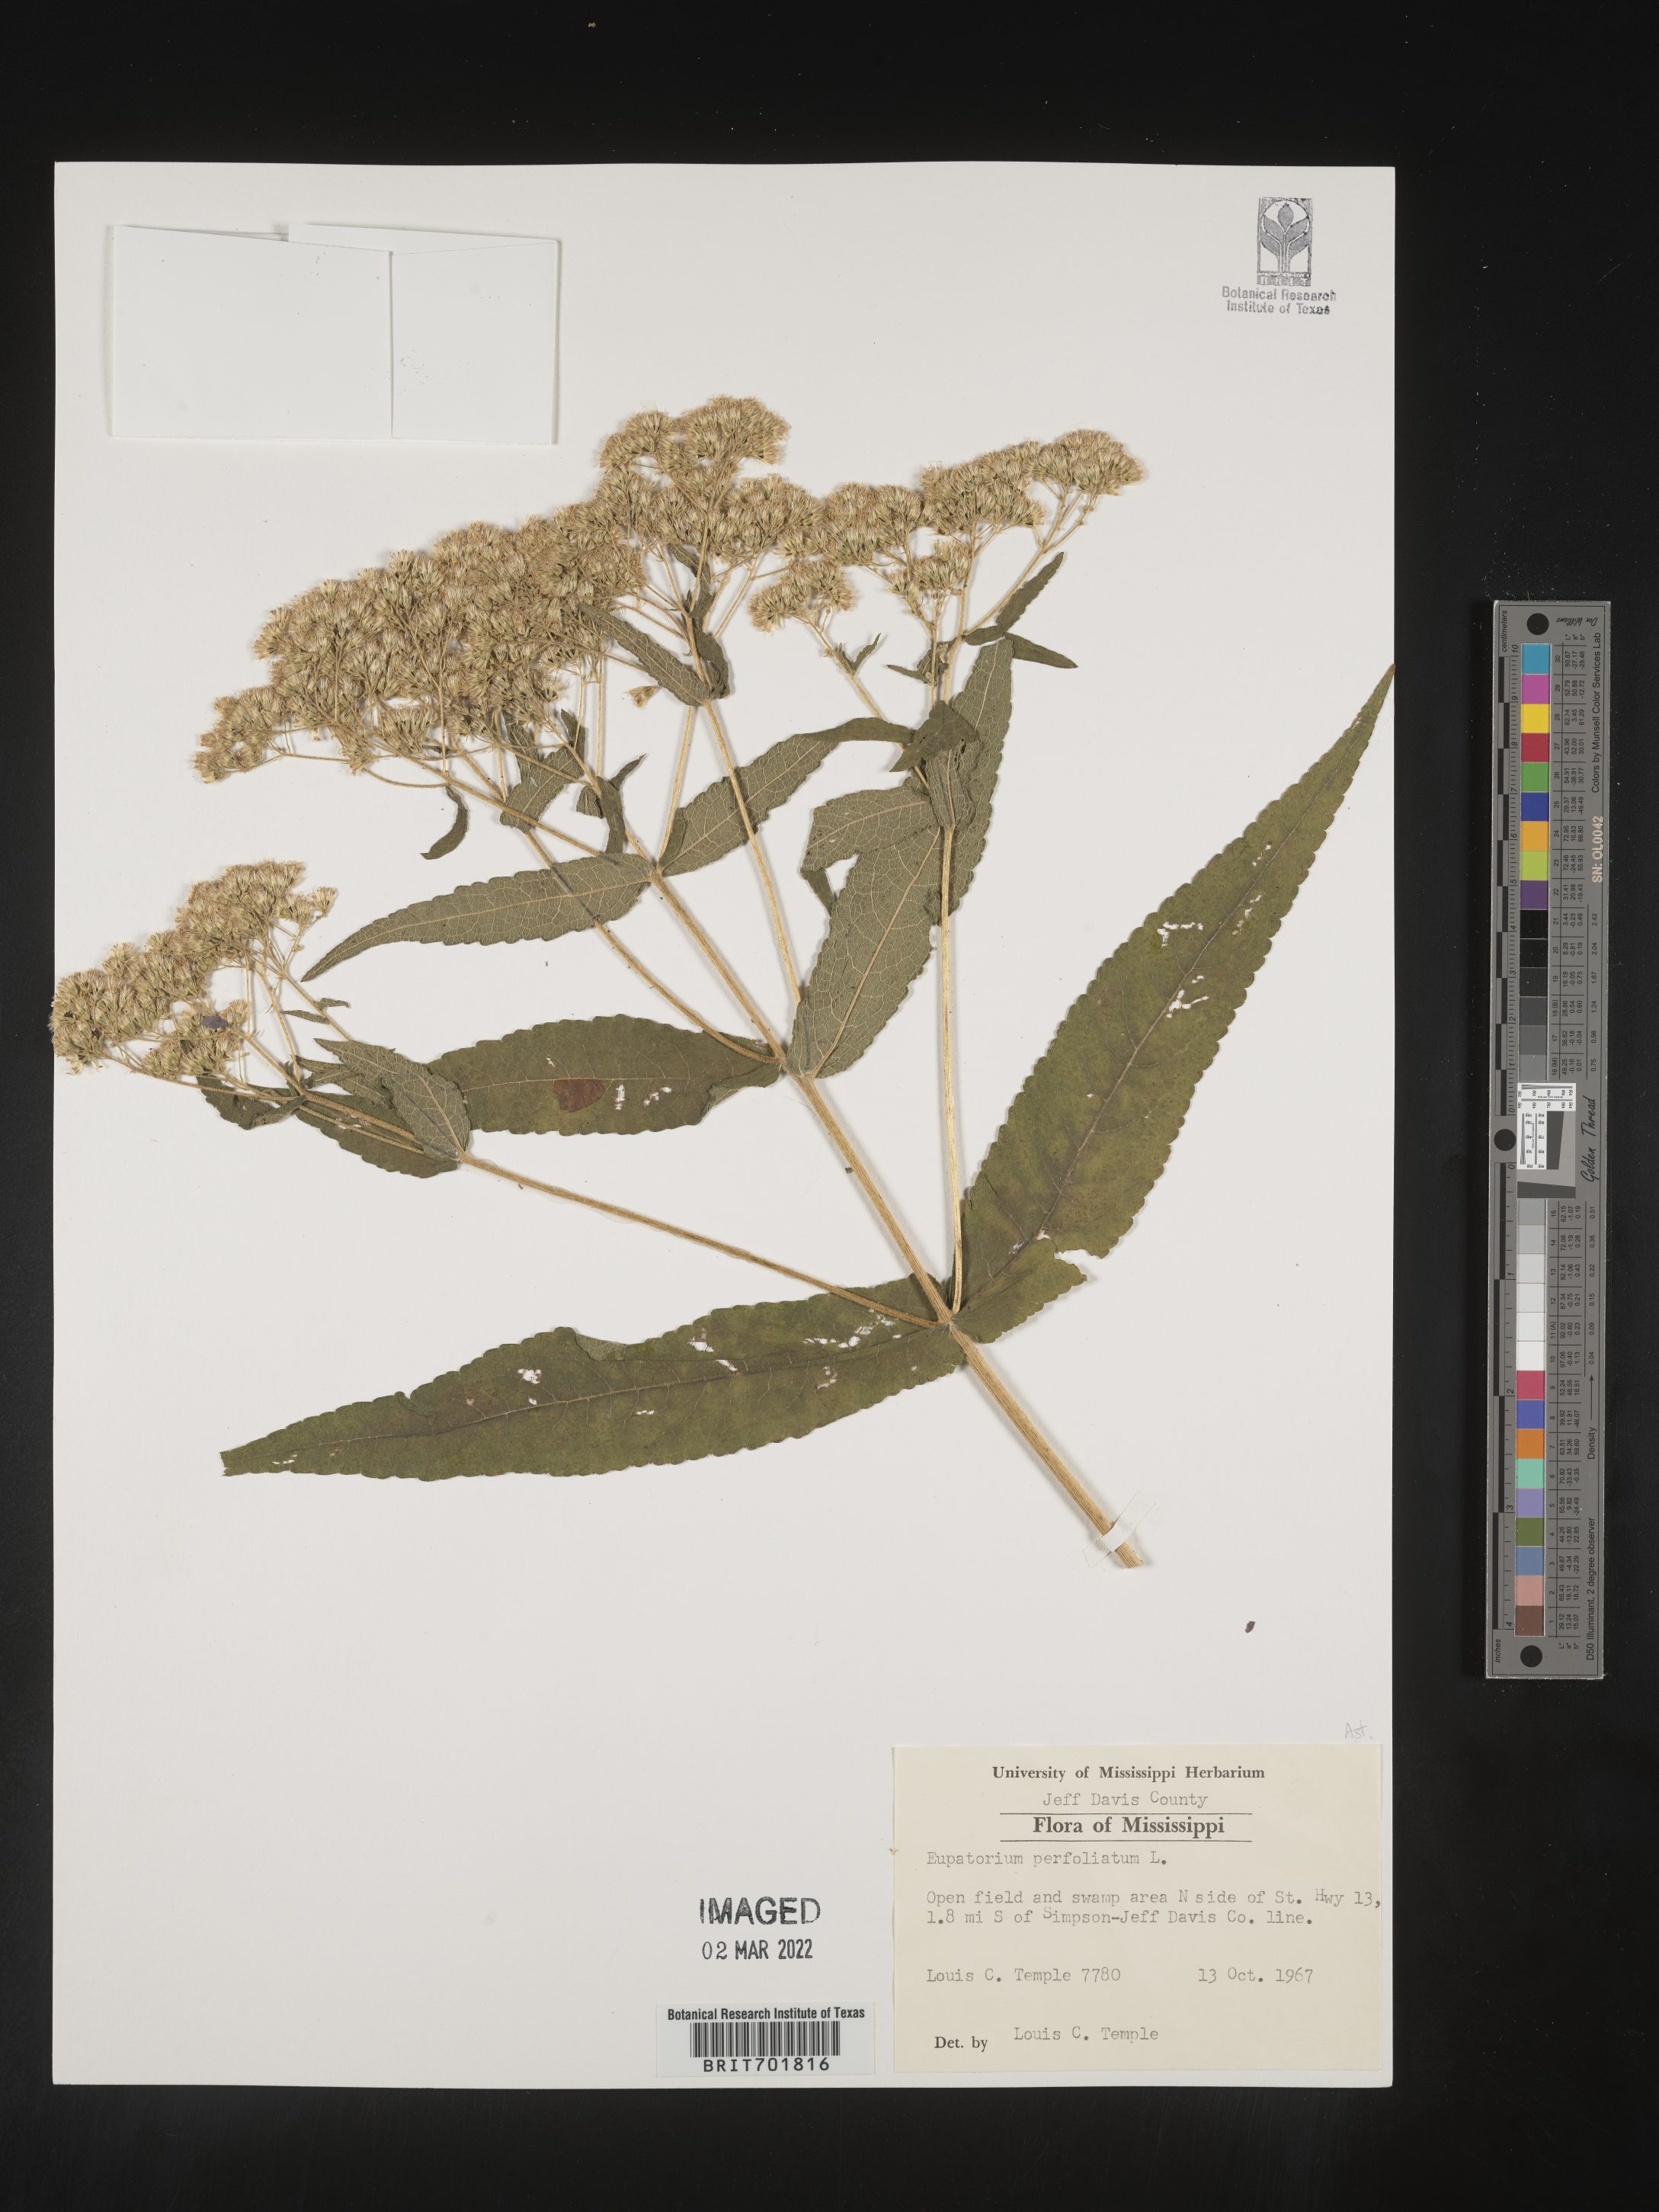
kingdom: Plantae
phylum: Tracheophyta
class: Magnoliopsida
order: Asterales
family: Asteraceae
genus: Eupatorium
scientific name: Eupatorium perfoliatum
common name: Boneset
